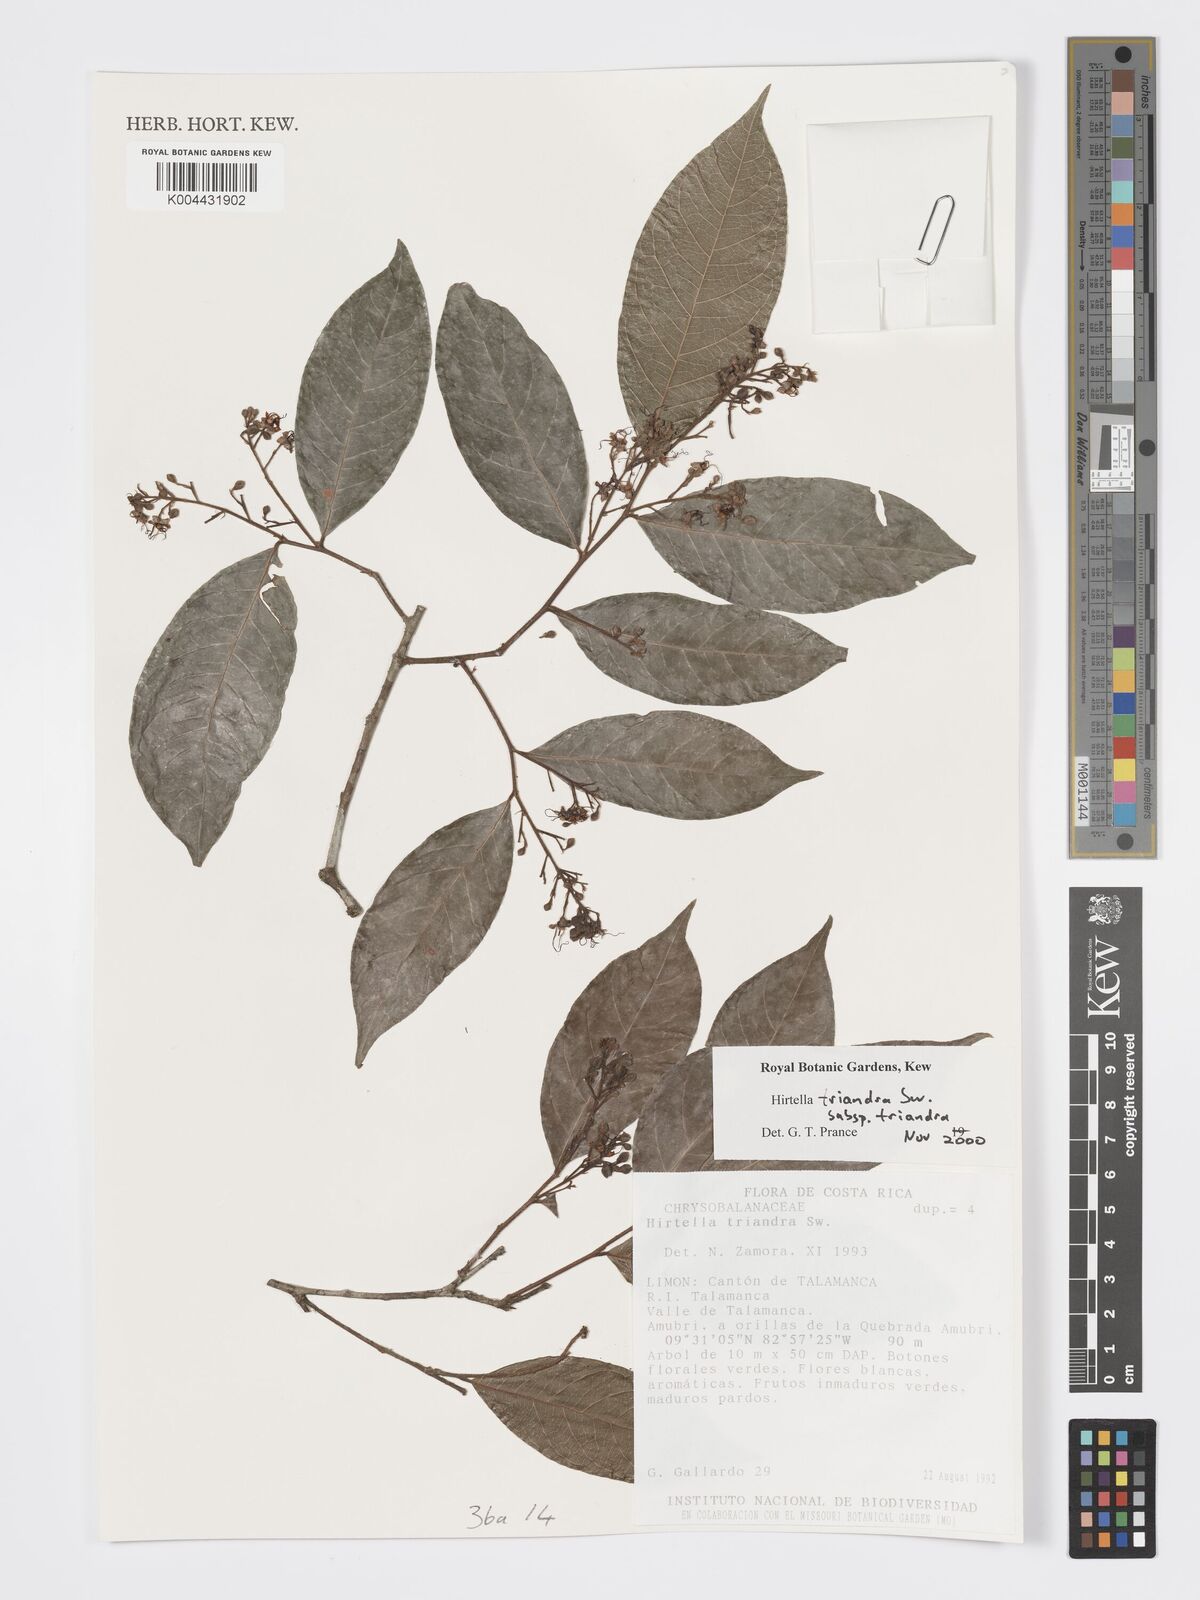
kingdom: Plantae
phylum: Tracheophyta
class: Magnoliopsida
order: Malpighiales
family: Chrysobalanaceae
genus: Hirtella
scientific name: Hirtella triandra
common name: Hairy plum
